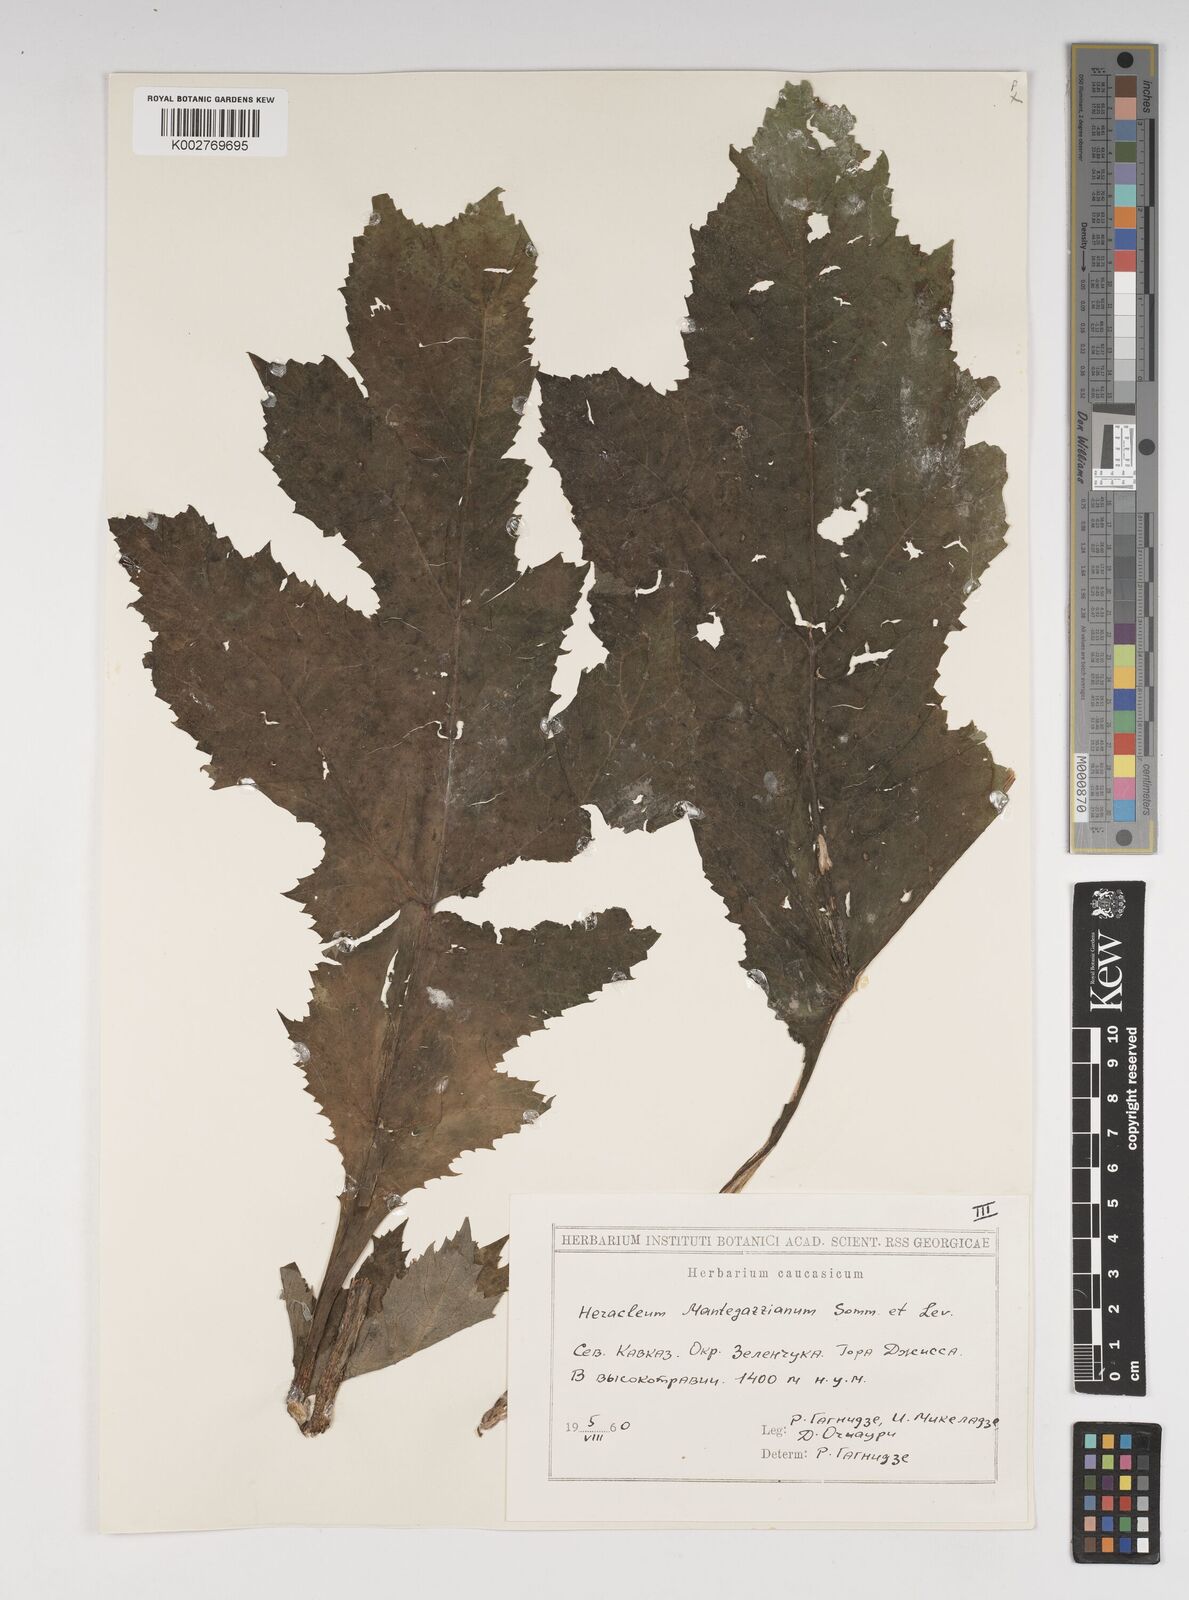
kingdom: Plantae
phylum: Tracheophyta
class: Magnoliopsida
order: Apiales
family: Apiaceae
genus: Heracleum
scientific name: Heracleum mantegazzianum
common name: Giant hogweed
